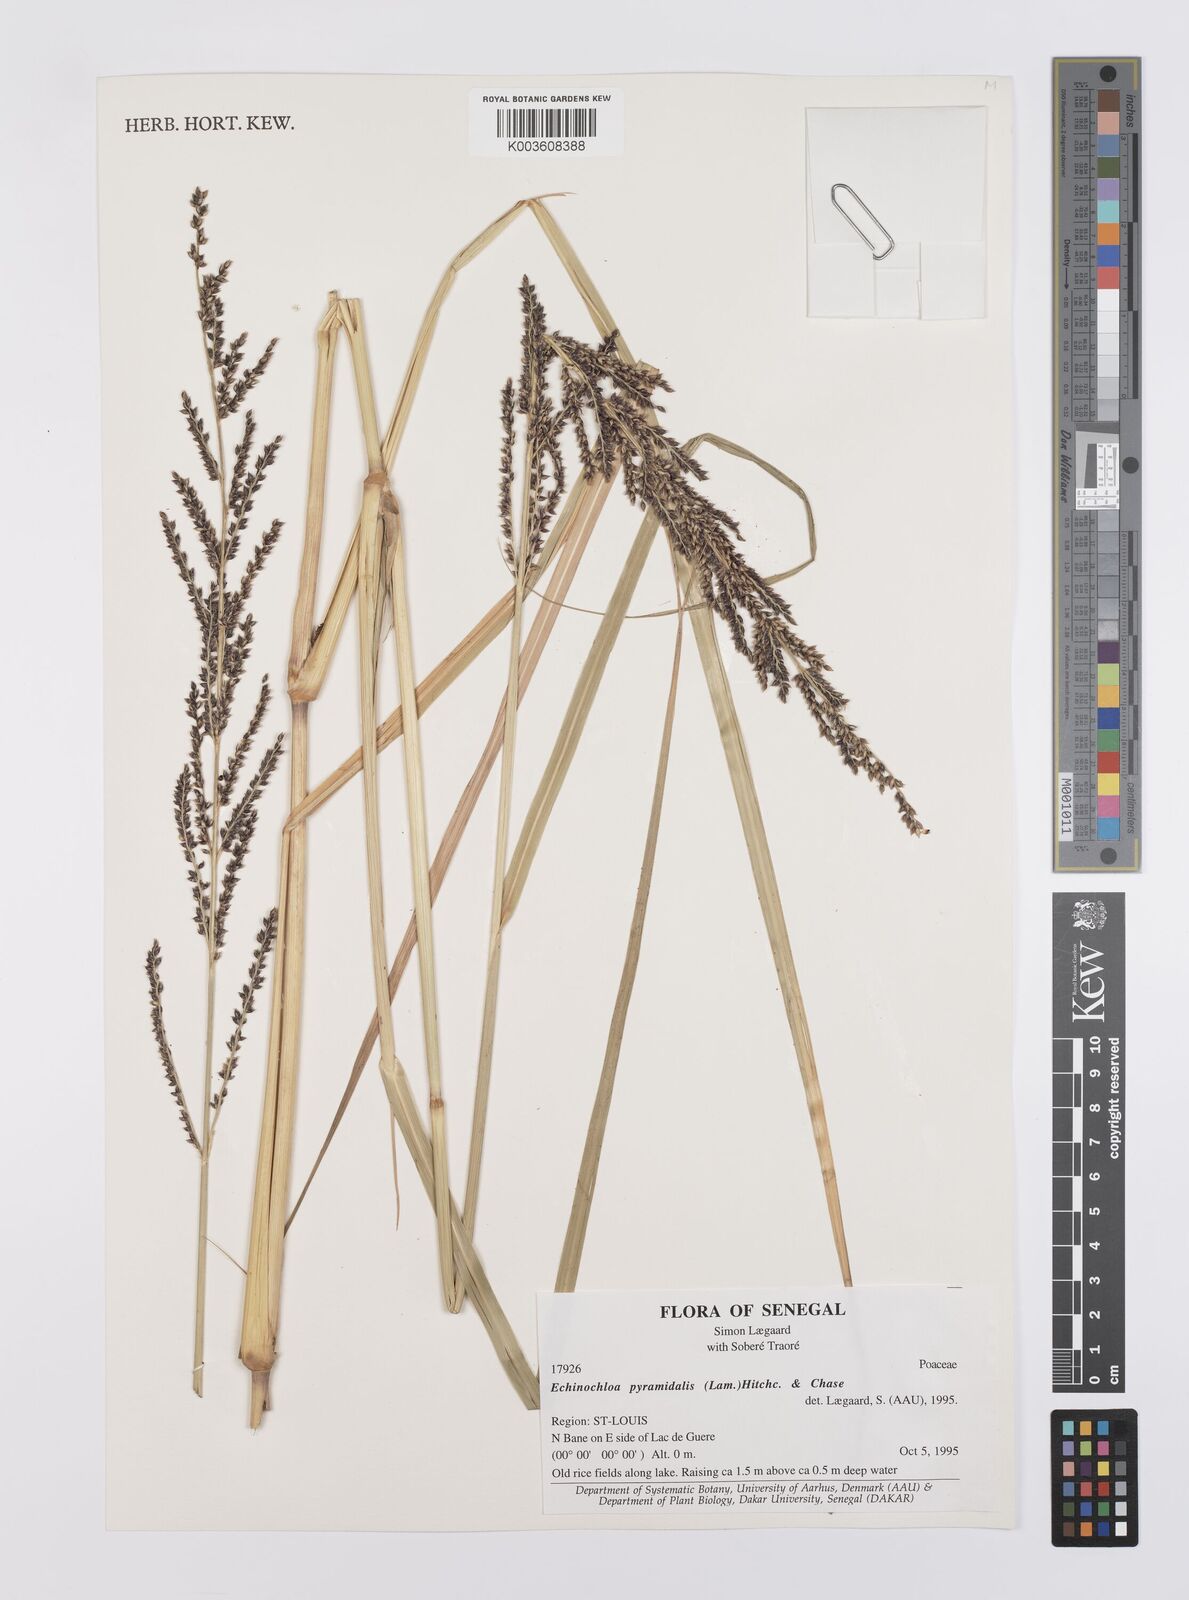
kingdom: Plantae
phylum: Tracheophyta
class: Liliopsida
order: Poales
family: Poaceae
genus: Echinochloa
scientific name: Echinochloa pyramidalis
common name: Antelope grass
